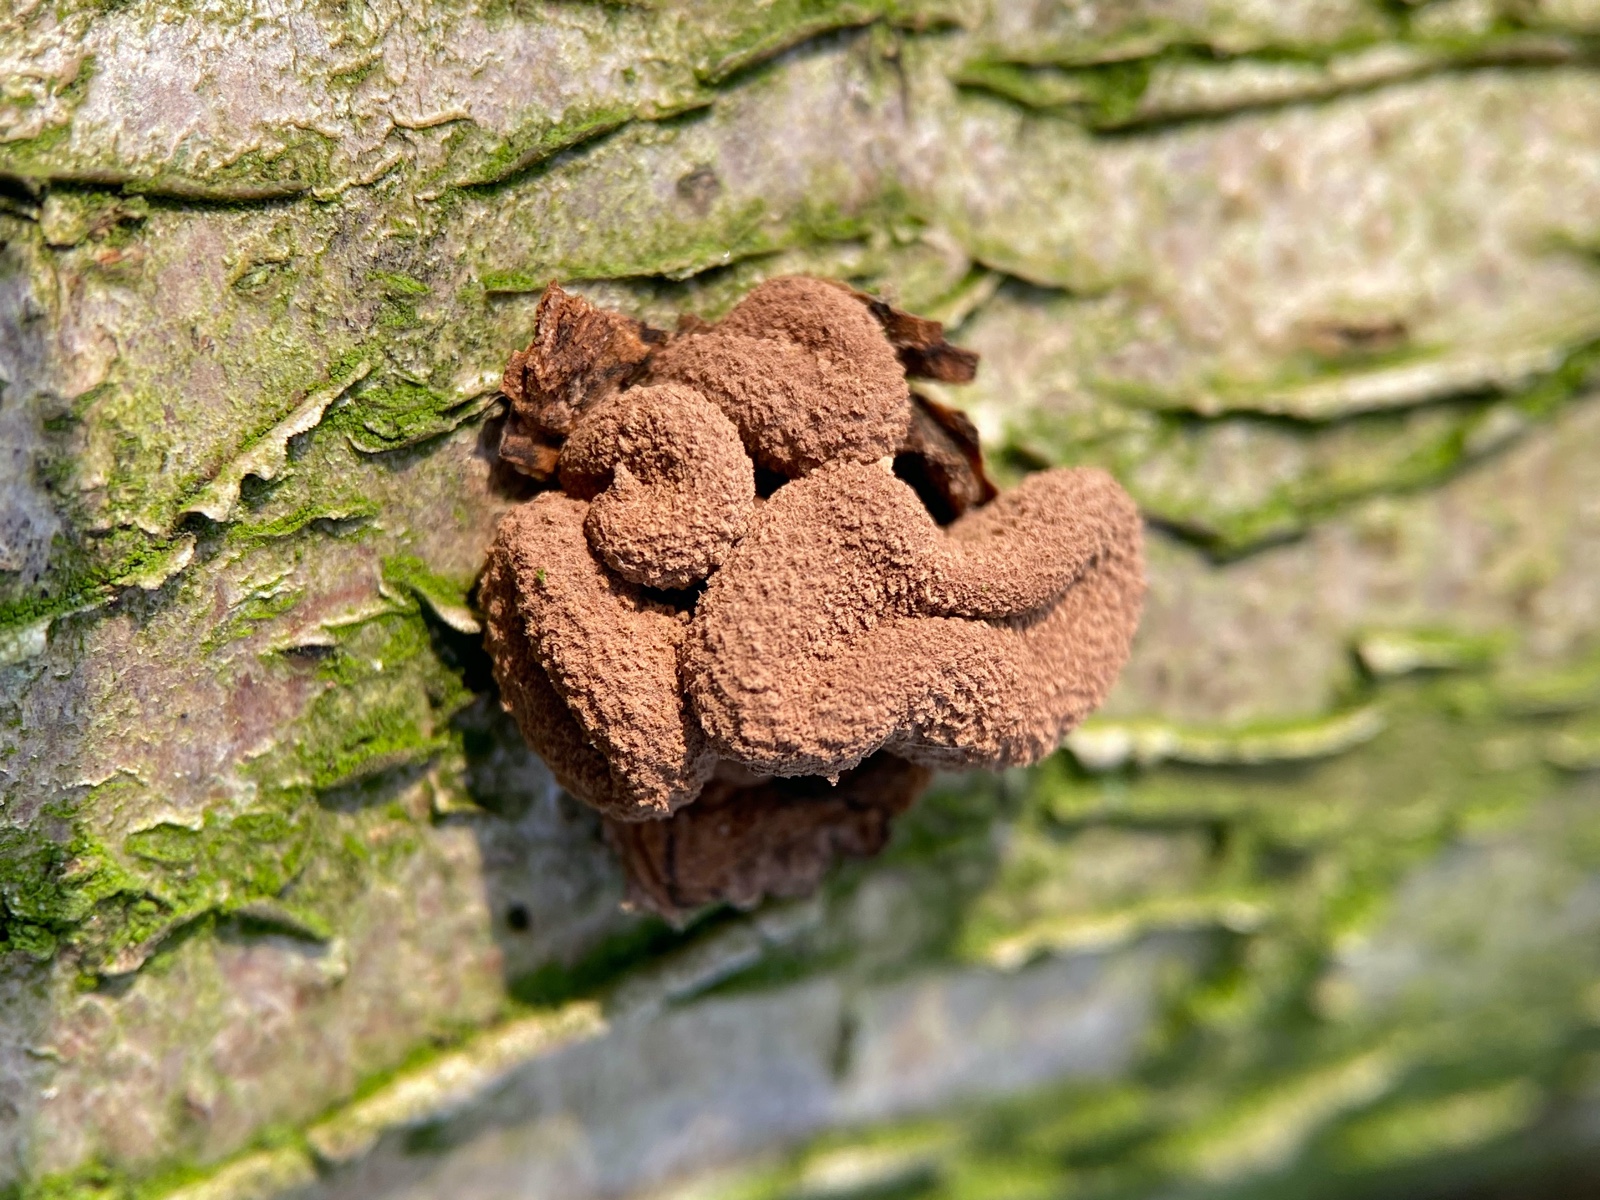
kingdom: Fungi
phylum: Ascomycota
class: Leotiomycetes
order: Helotiales
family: Cenangiaceae
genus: Encoelia
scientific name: Encoelia furfuracea
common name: hassel-læderskive
